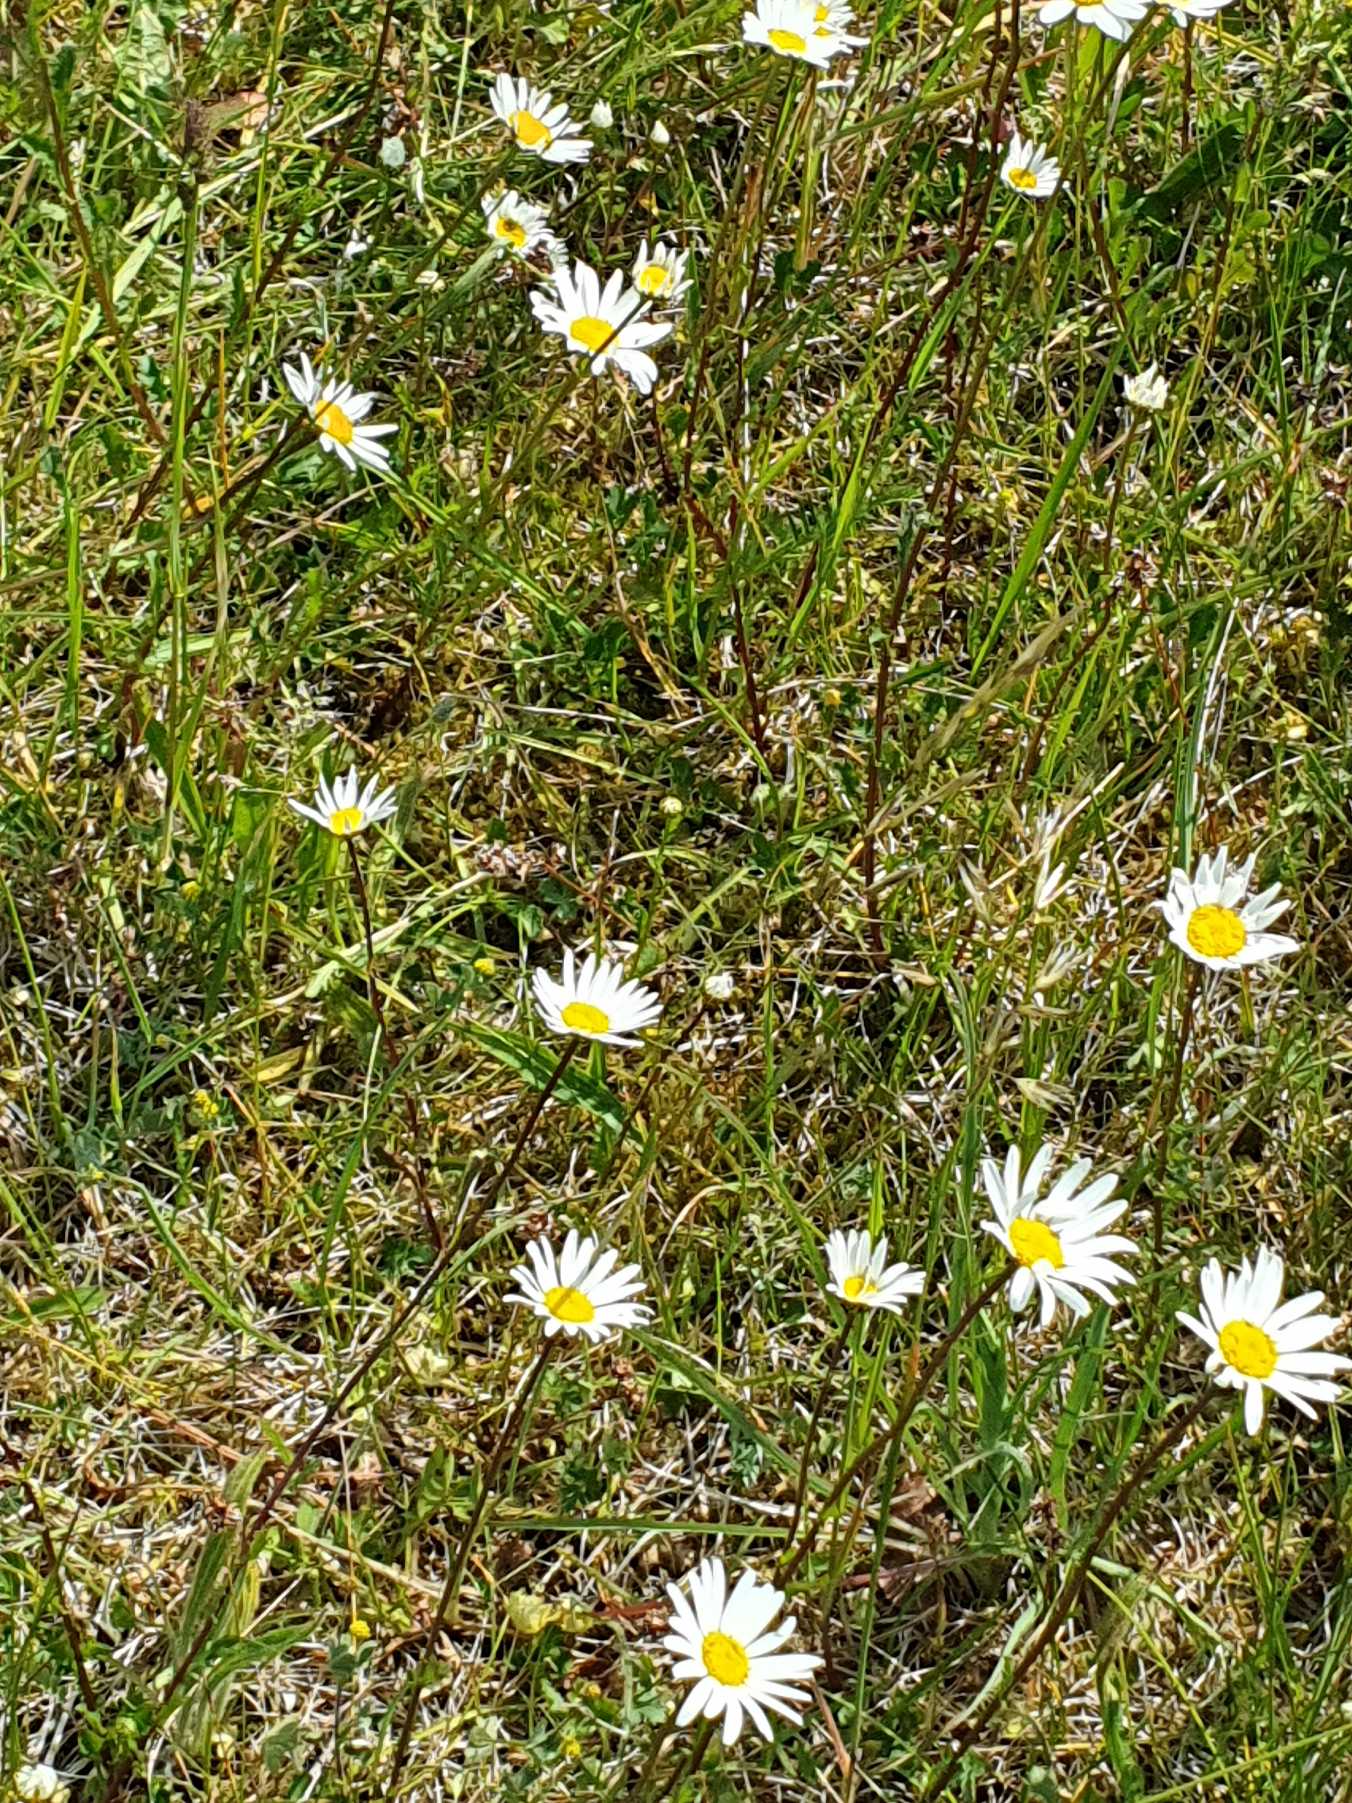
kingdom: Plantae
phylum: Tracheophyta
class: Magnoliopsida
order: Asterales
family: Asteraceae
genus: Leucanthemum
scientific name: Leucanthemum vulgare
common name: Hvid okseøje
